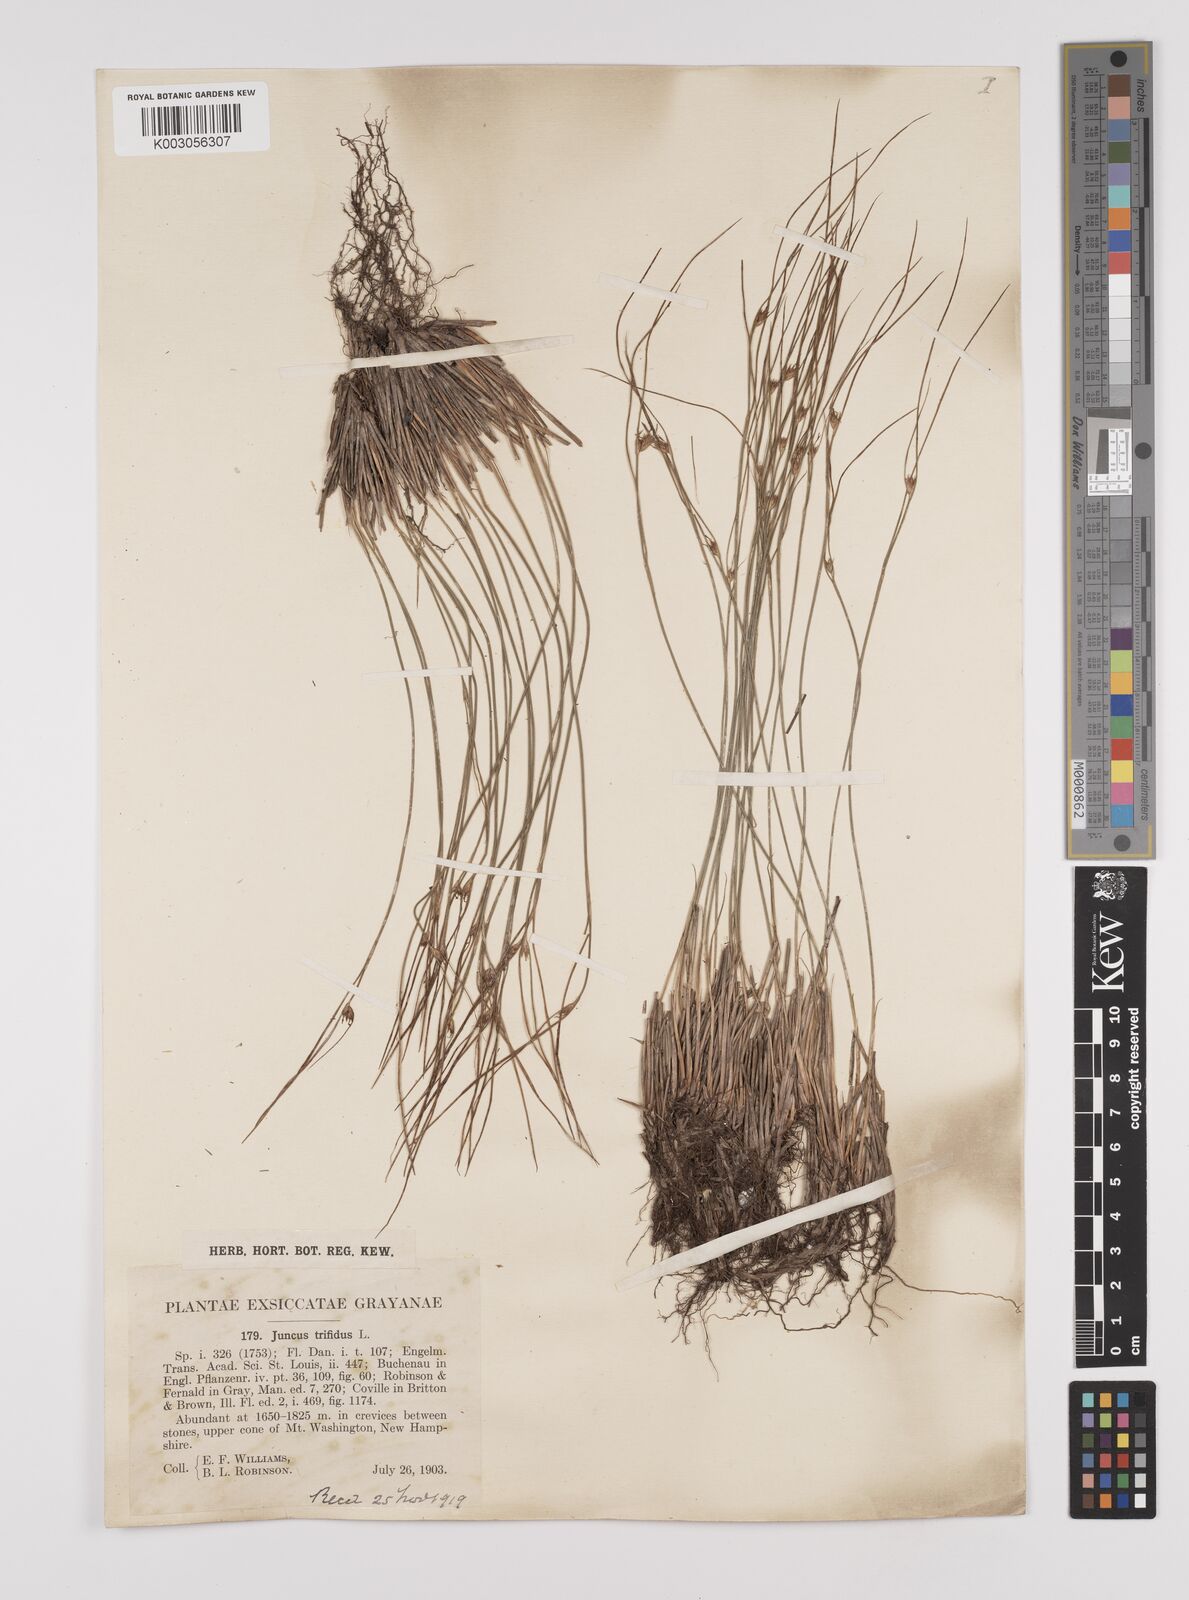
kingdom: Plantae
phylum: Tracheophyta
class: Liliopsida
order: Poales
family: Juncaceae
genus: Oreojuncus
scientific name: Oreojuncus trifidus
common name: Highland rush
